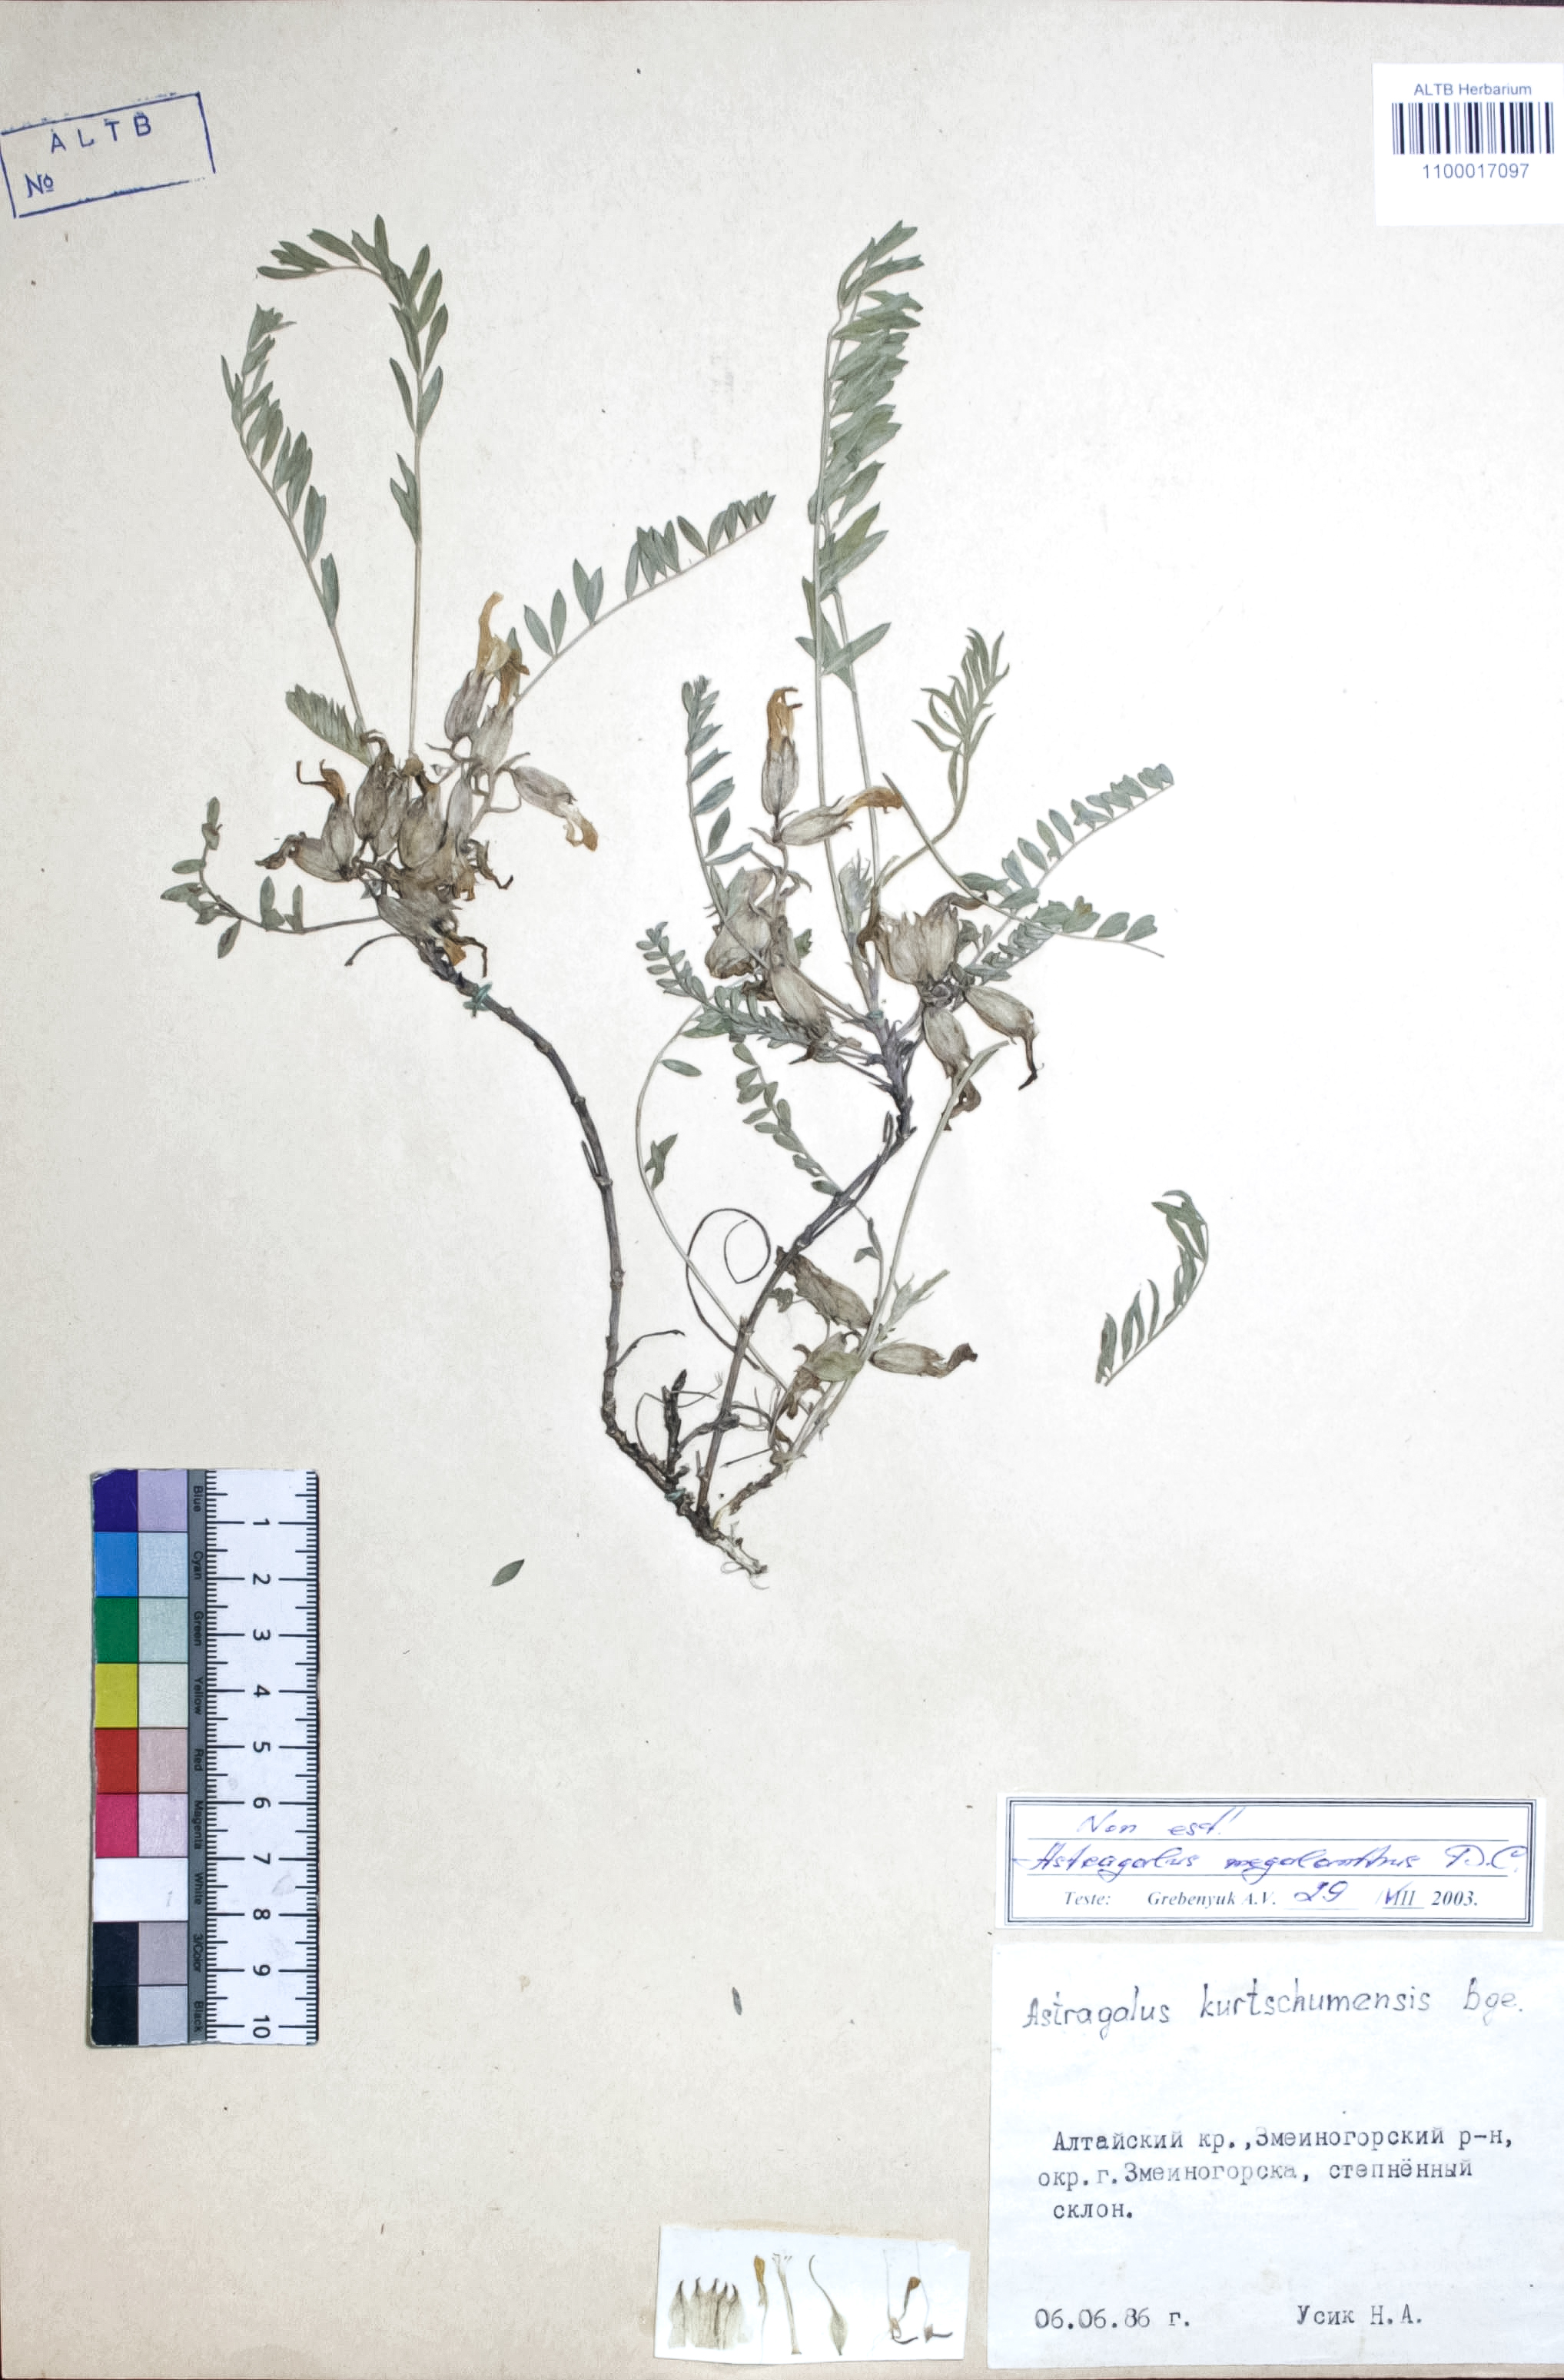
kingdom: Plantae
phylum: Tracheophyta
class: Magnoliopsida
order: Fabales
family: Fabaceae
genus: Astragalus
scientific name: Astragalus leptostachys
